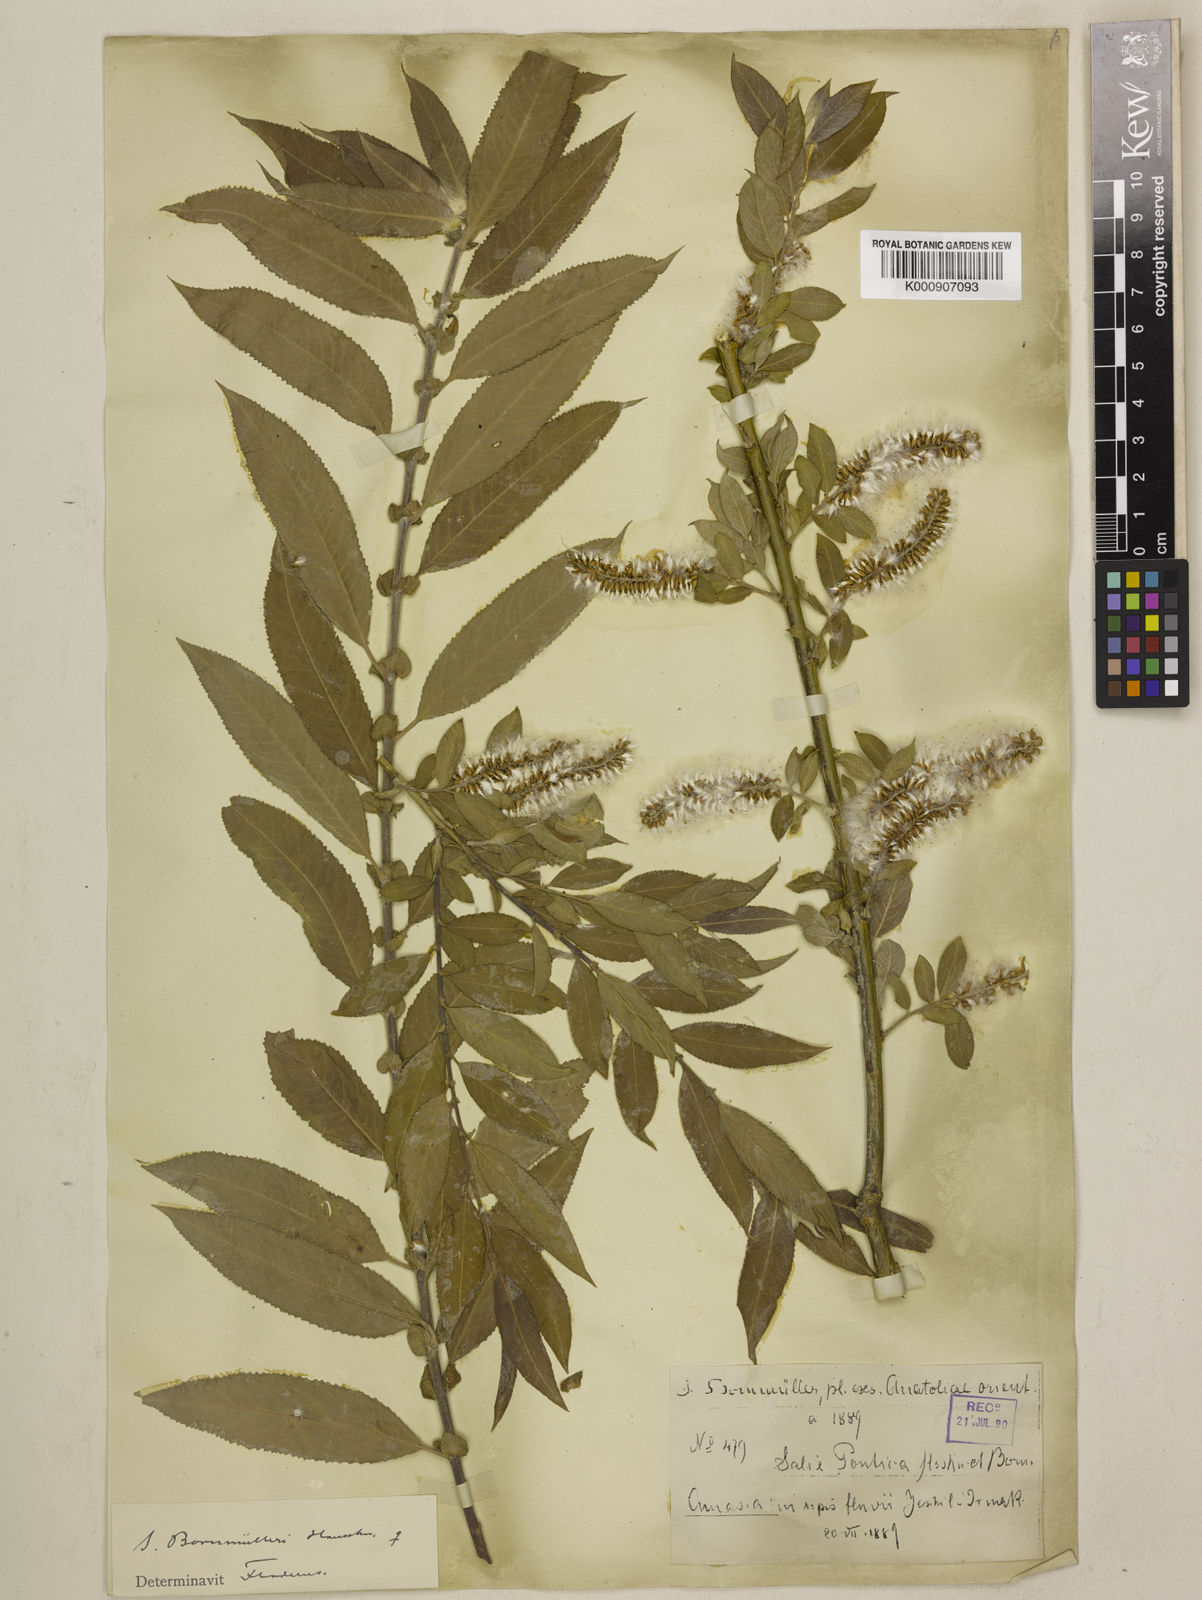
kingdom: Plantae
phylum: Tracheophyta
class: Magnoliopsida
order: Malpighiales
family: Salicaceae
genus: Salix
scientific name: Salix triandra
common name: Almond willow
